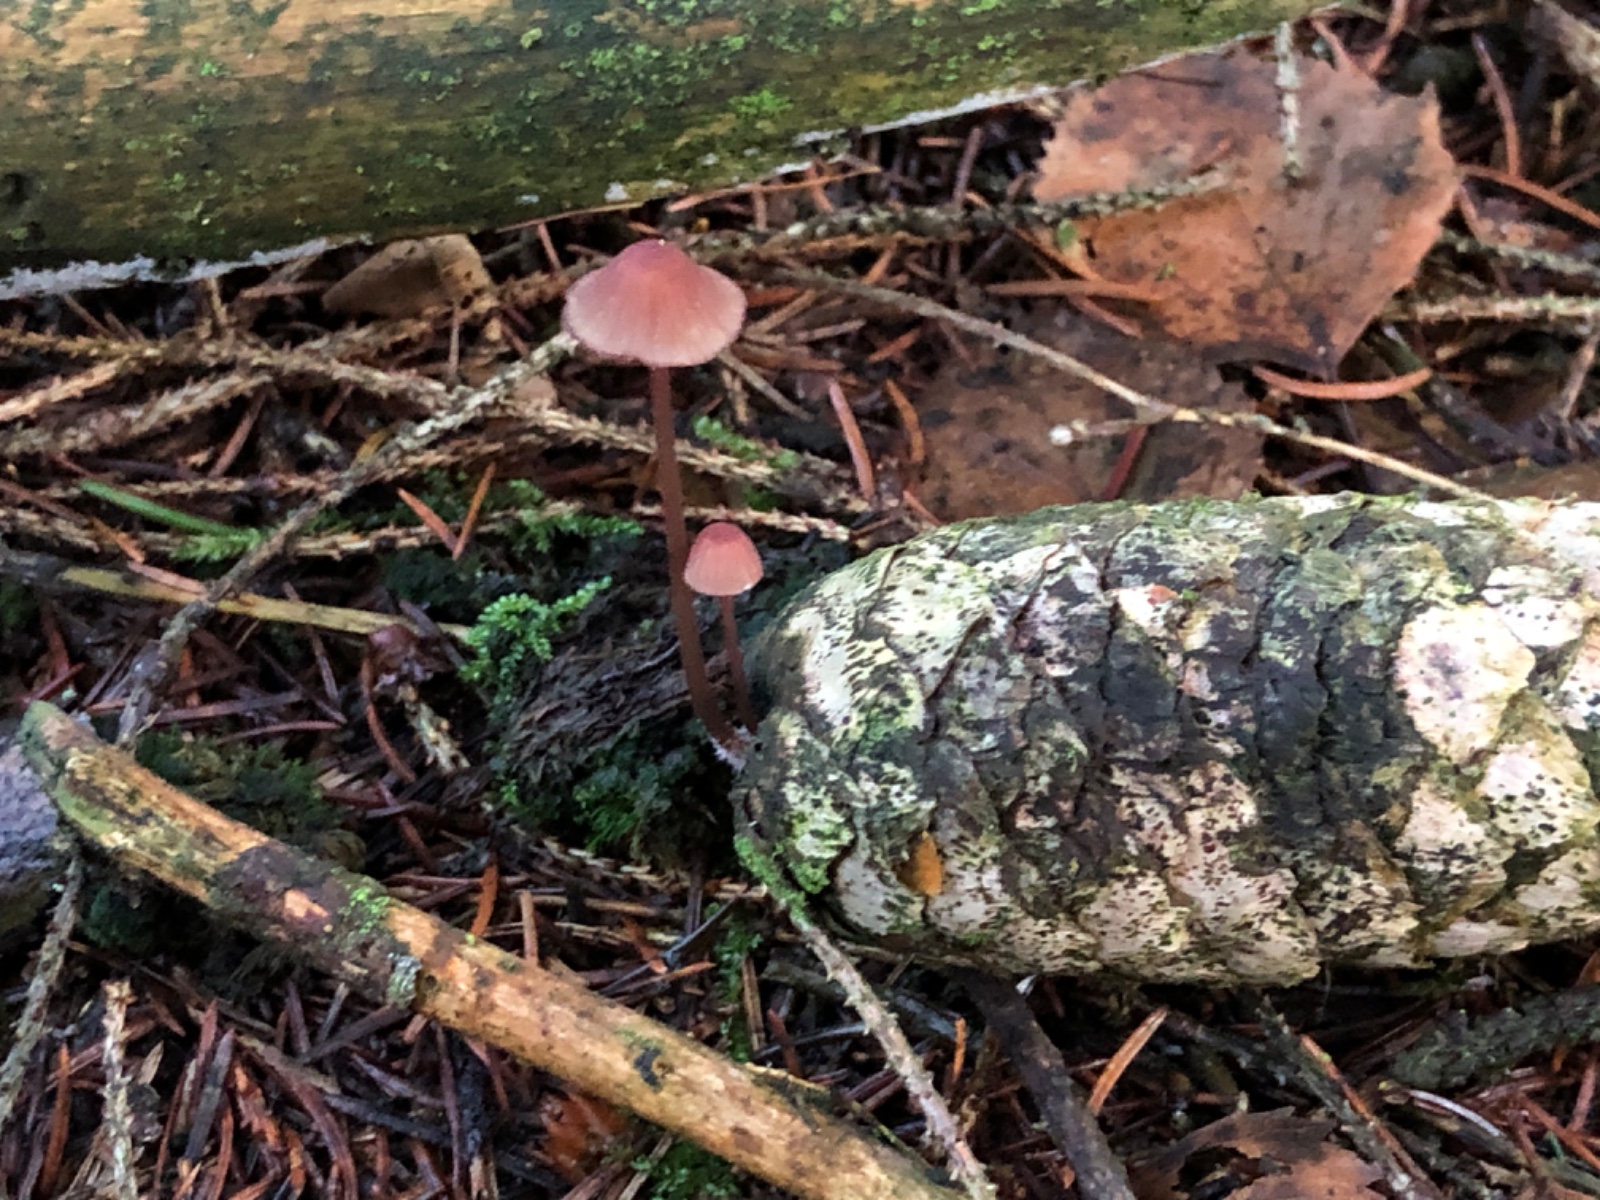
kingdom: Fungi
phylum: Basidiomycota
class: Agaricomycetes
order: Agaricales
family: Mycenaceae
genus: Mycena
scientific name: Mycena sanguinolenta
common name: rødmælket huesvamp
